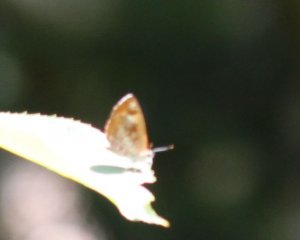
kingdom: Animalia
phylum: Arthropoda
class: Insecta
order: Lepidoptera
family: Lycaenidae
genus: Feniseca
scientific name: Feniseca tarquinius
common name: Harvester
